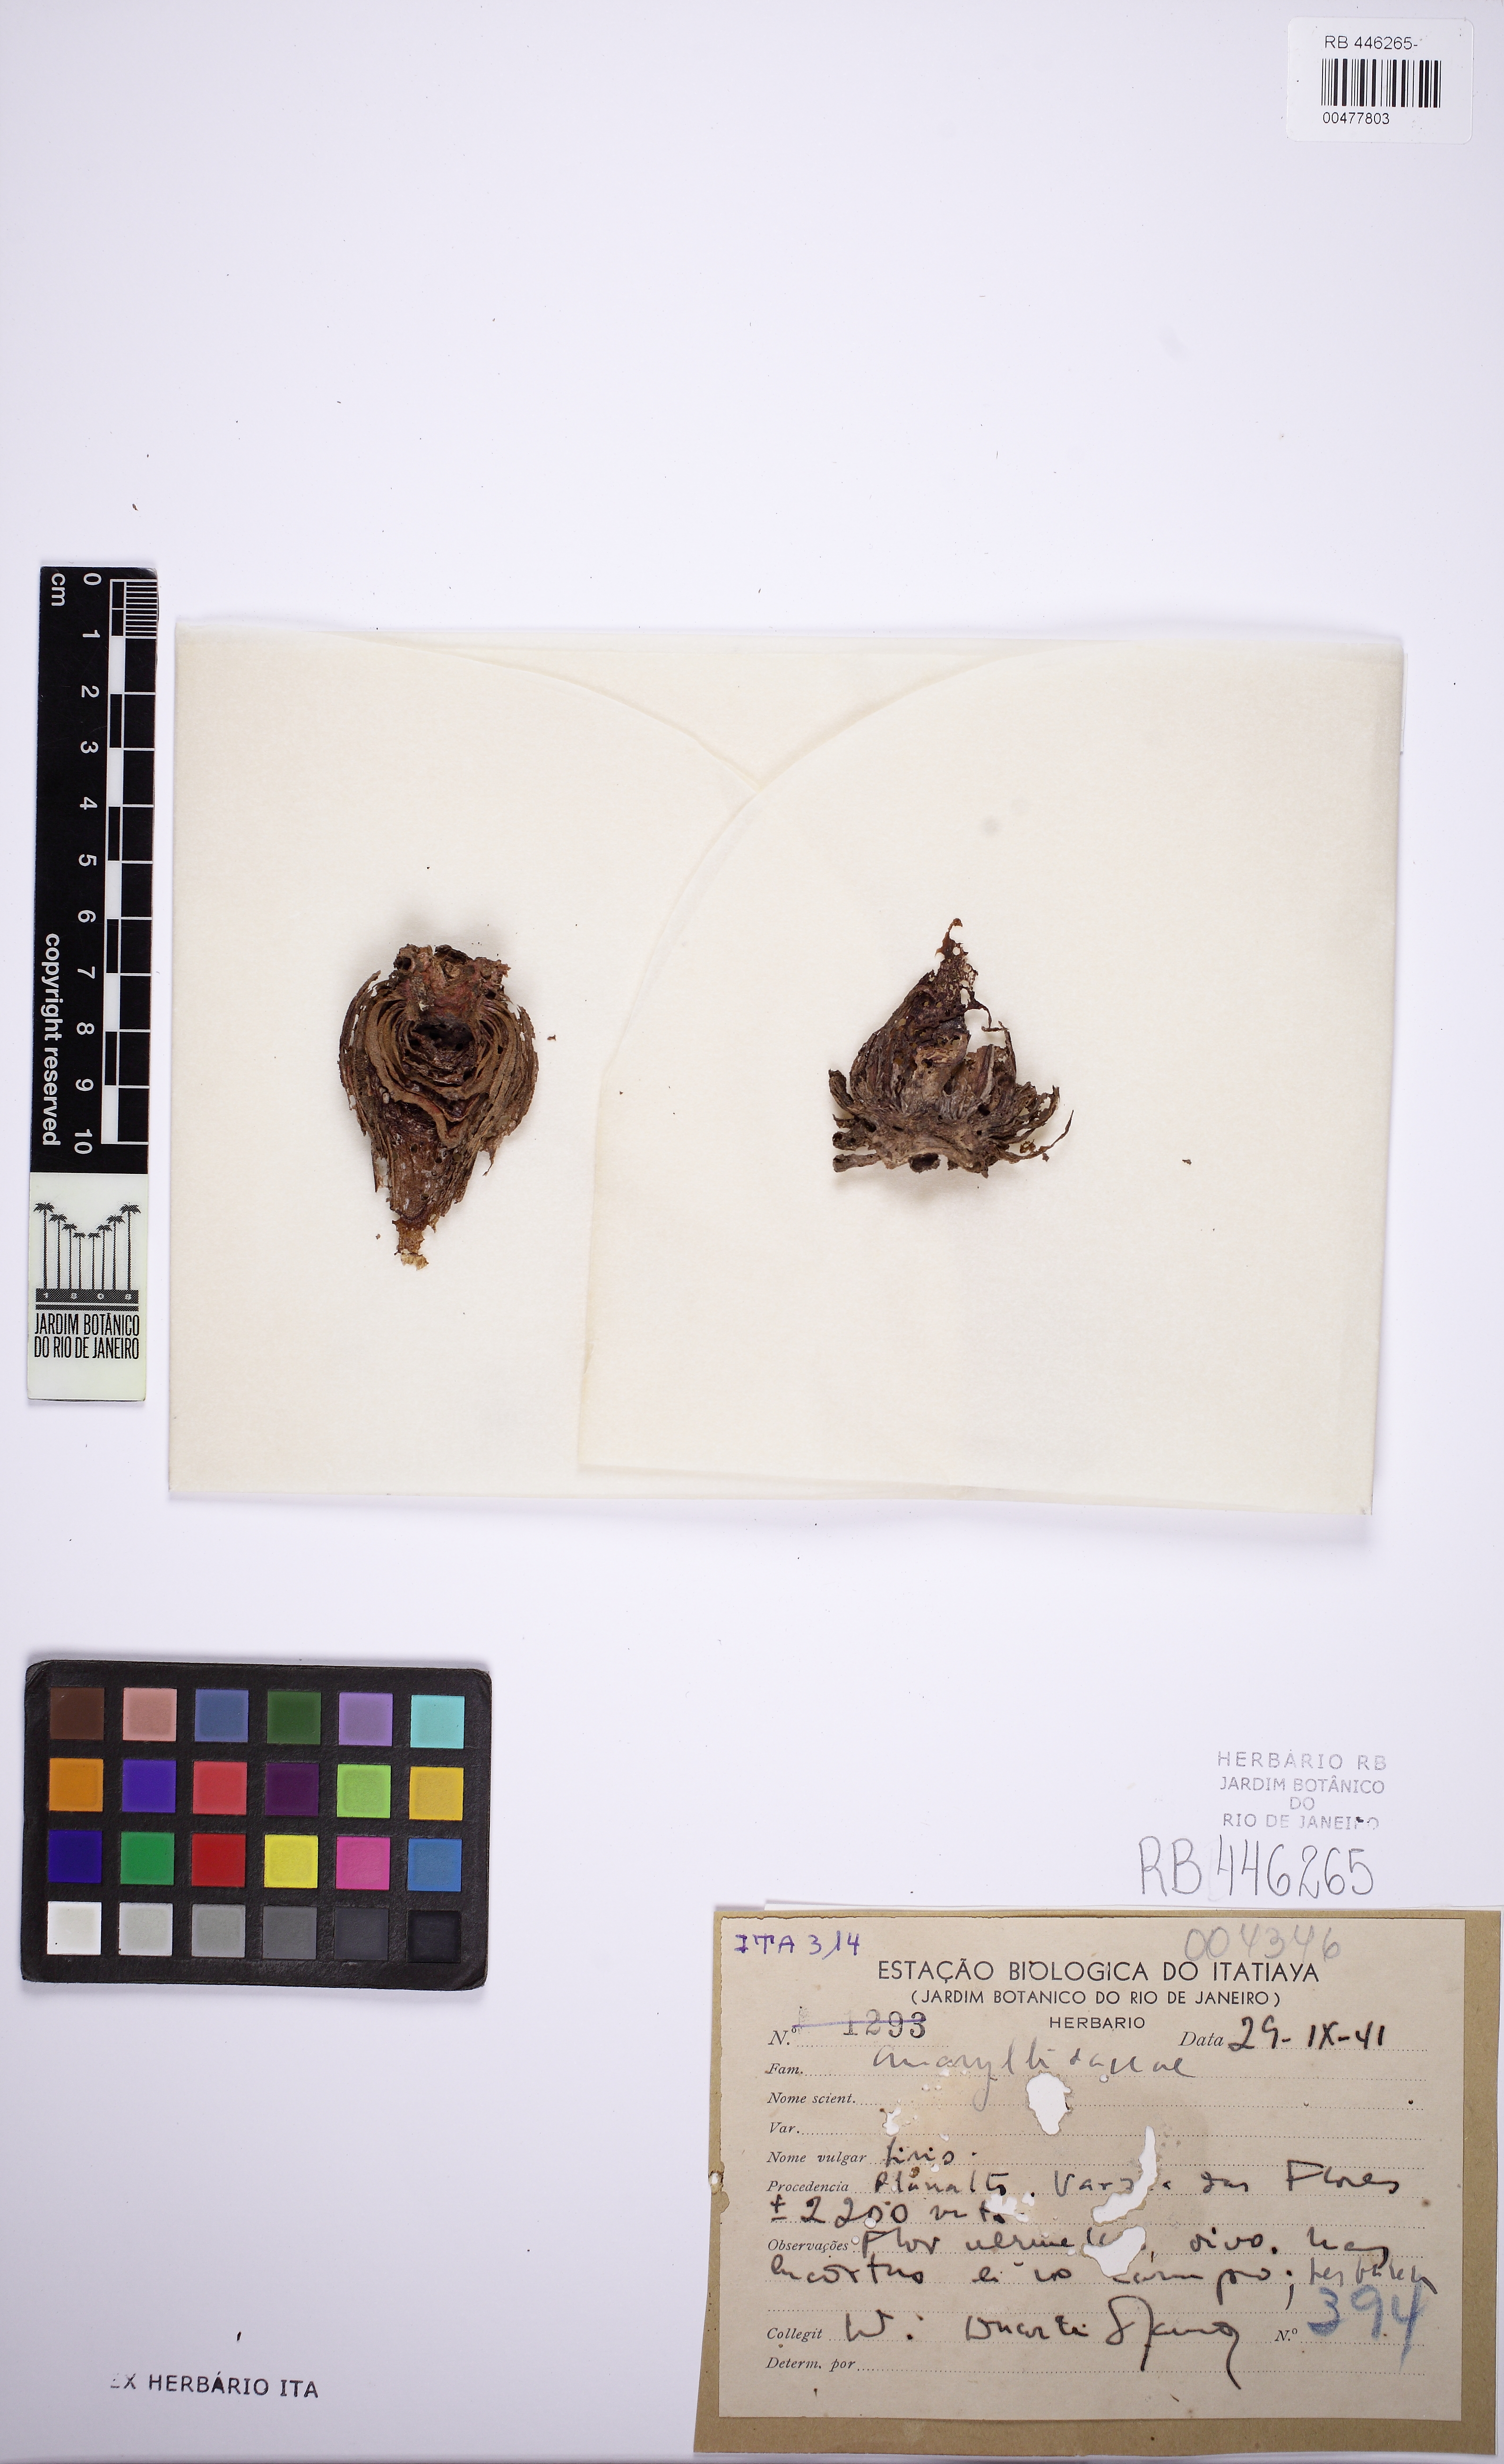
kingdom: Plantae
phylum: Tracheophyta
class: Liliopsida
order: Asparagales
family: Amaryllidaceae
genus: Hippeastrum
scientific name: Hippeastrum glaucescens
